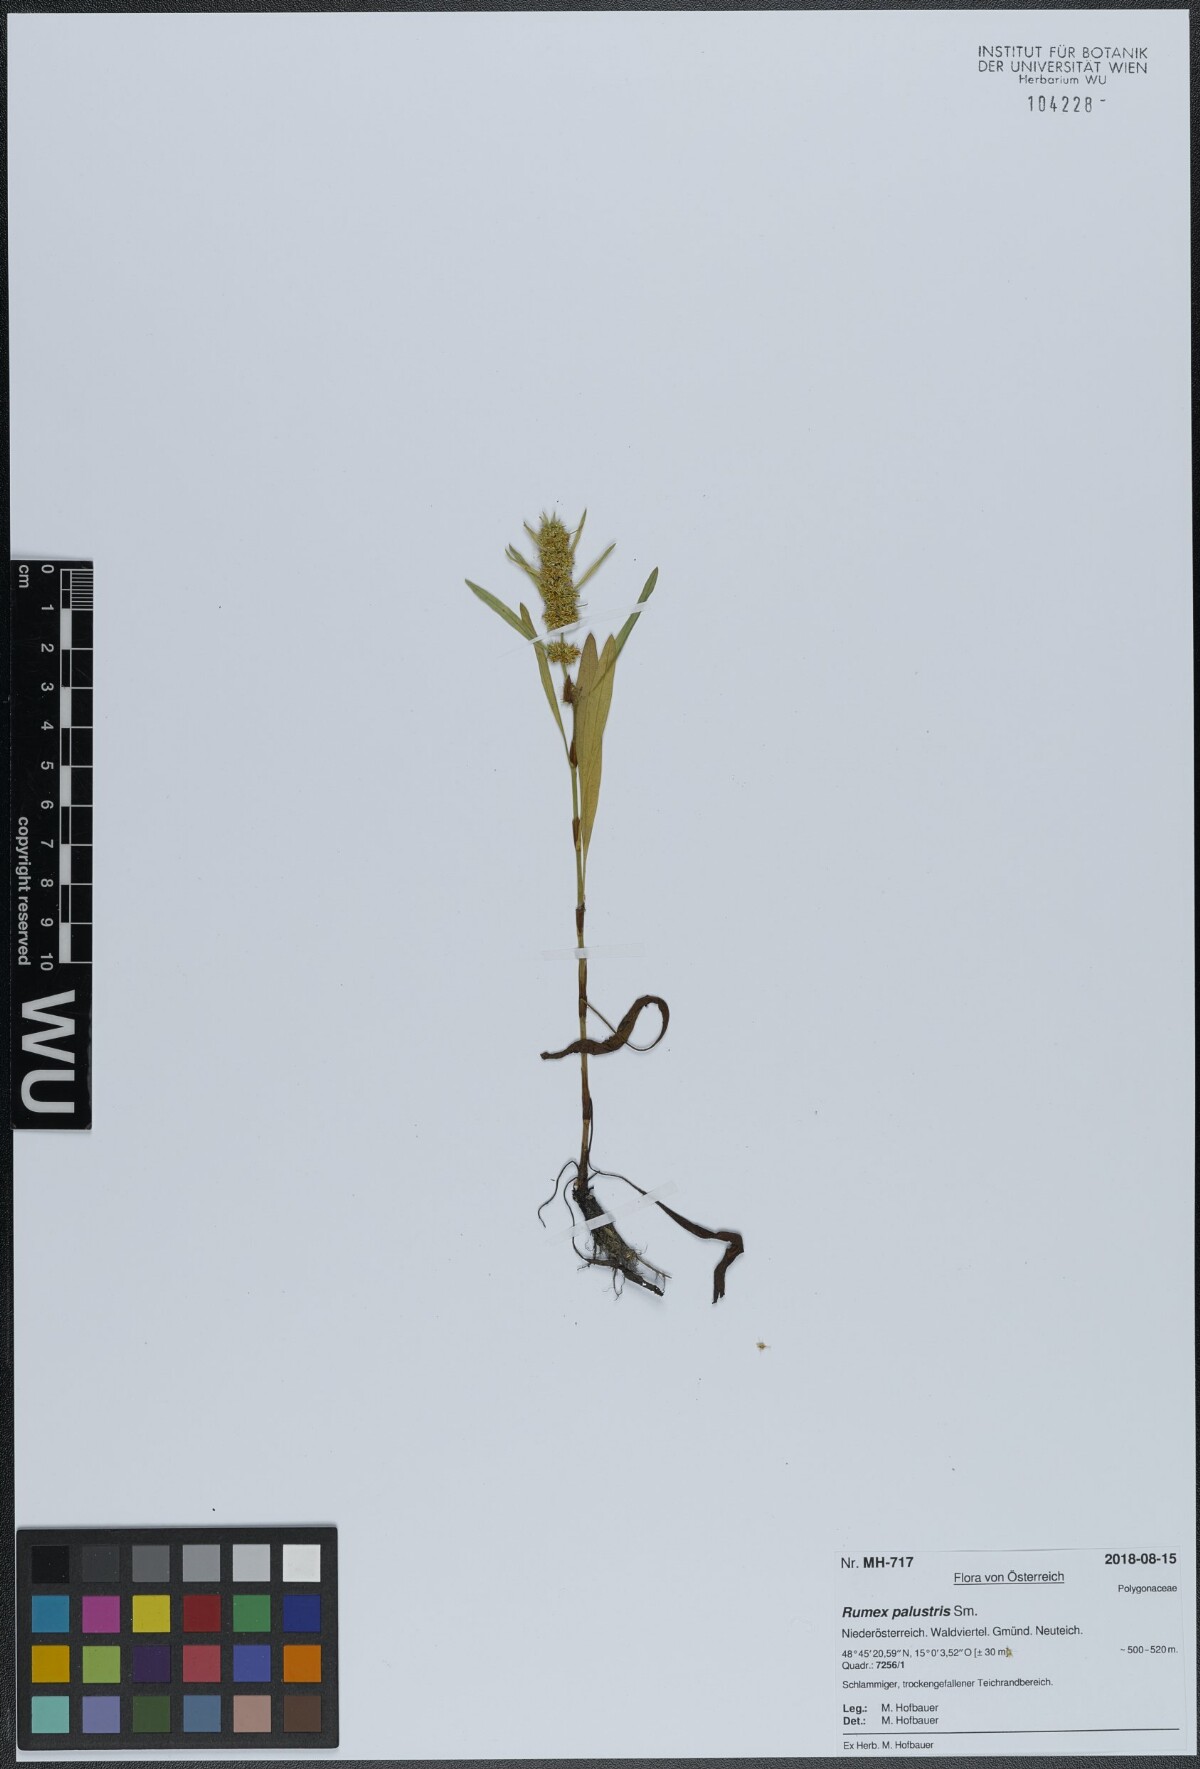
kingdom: Plantae
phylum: Tracheophyta
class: Magnoliopsida
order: Caryophyllales
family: Polygonaceae
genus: Rumex
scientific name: Rumex maritimus
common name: Golden dock
